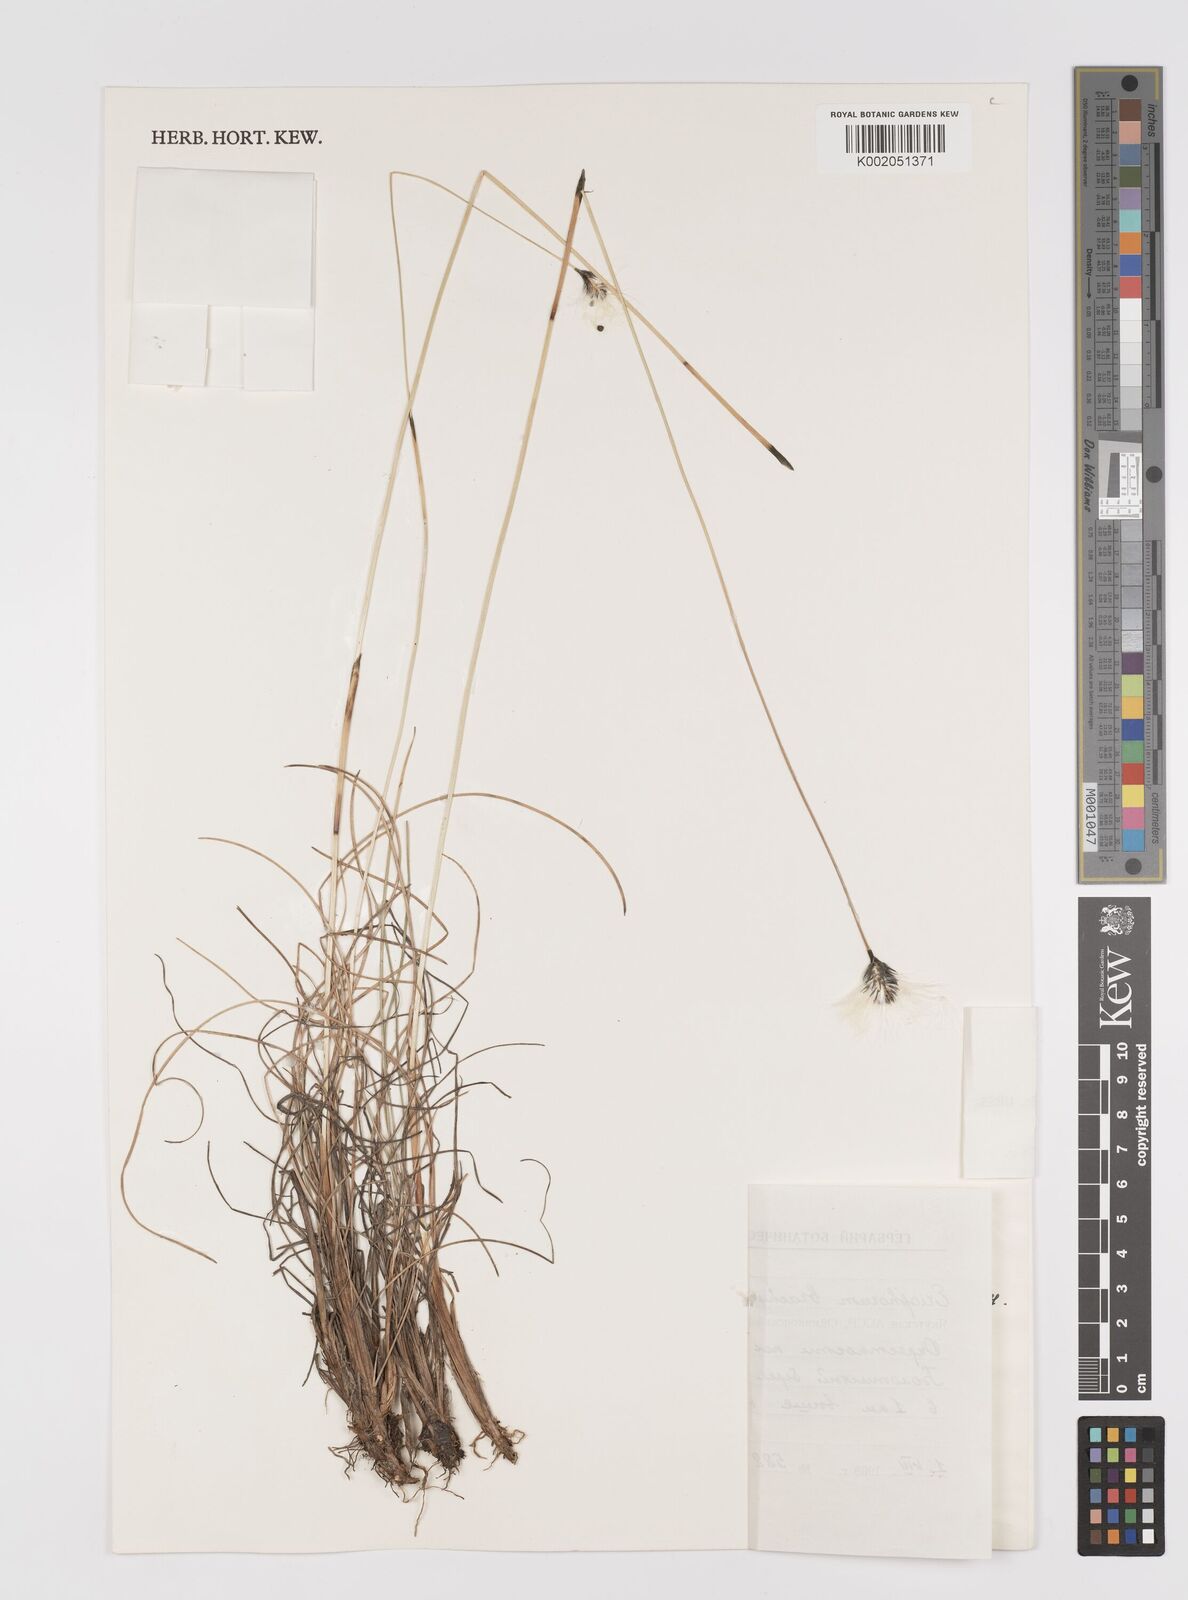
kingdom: Plantae
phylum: Tracheophyta
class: Liliopsida
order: Poales
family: Cyperaceae
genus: Eriophorum
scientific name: Eriophorum brachyantherum
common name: Closed-sheathed cottongrass
